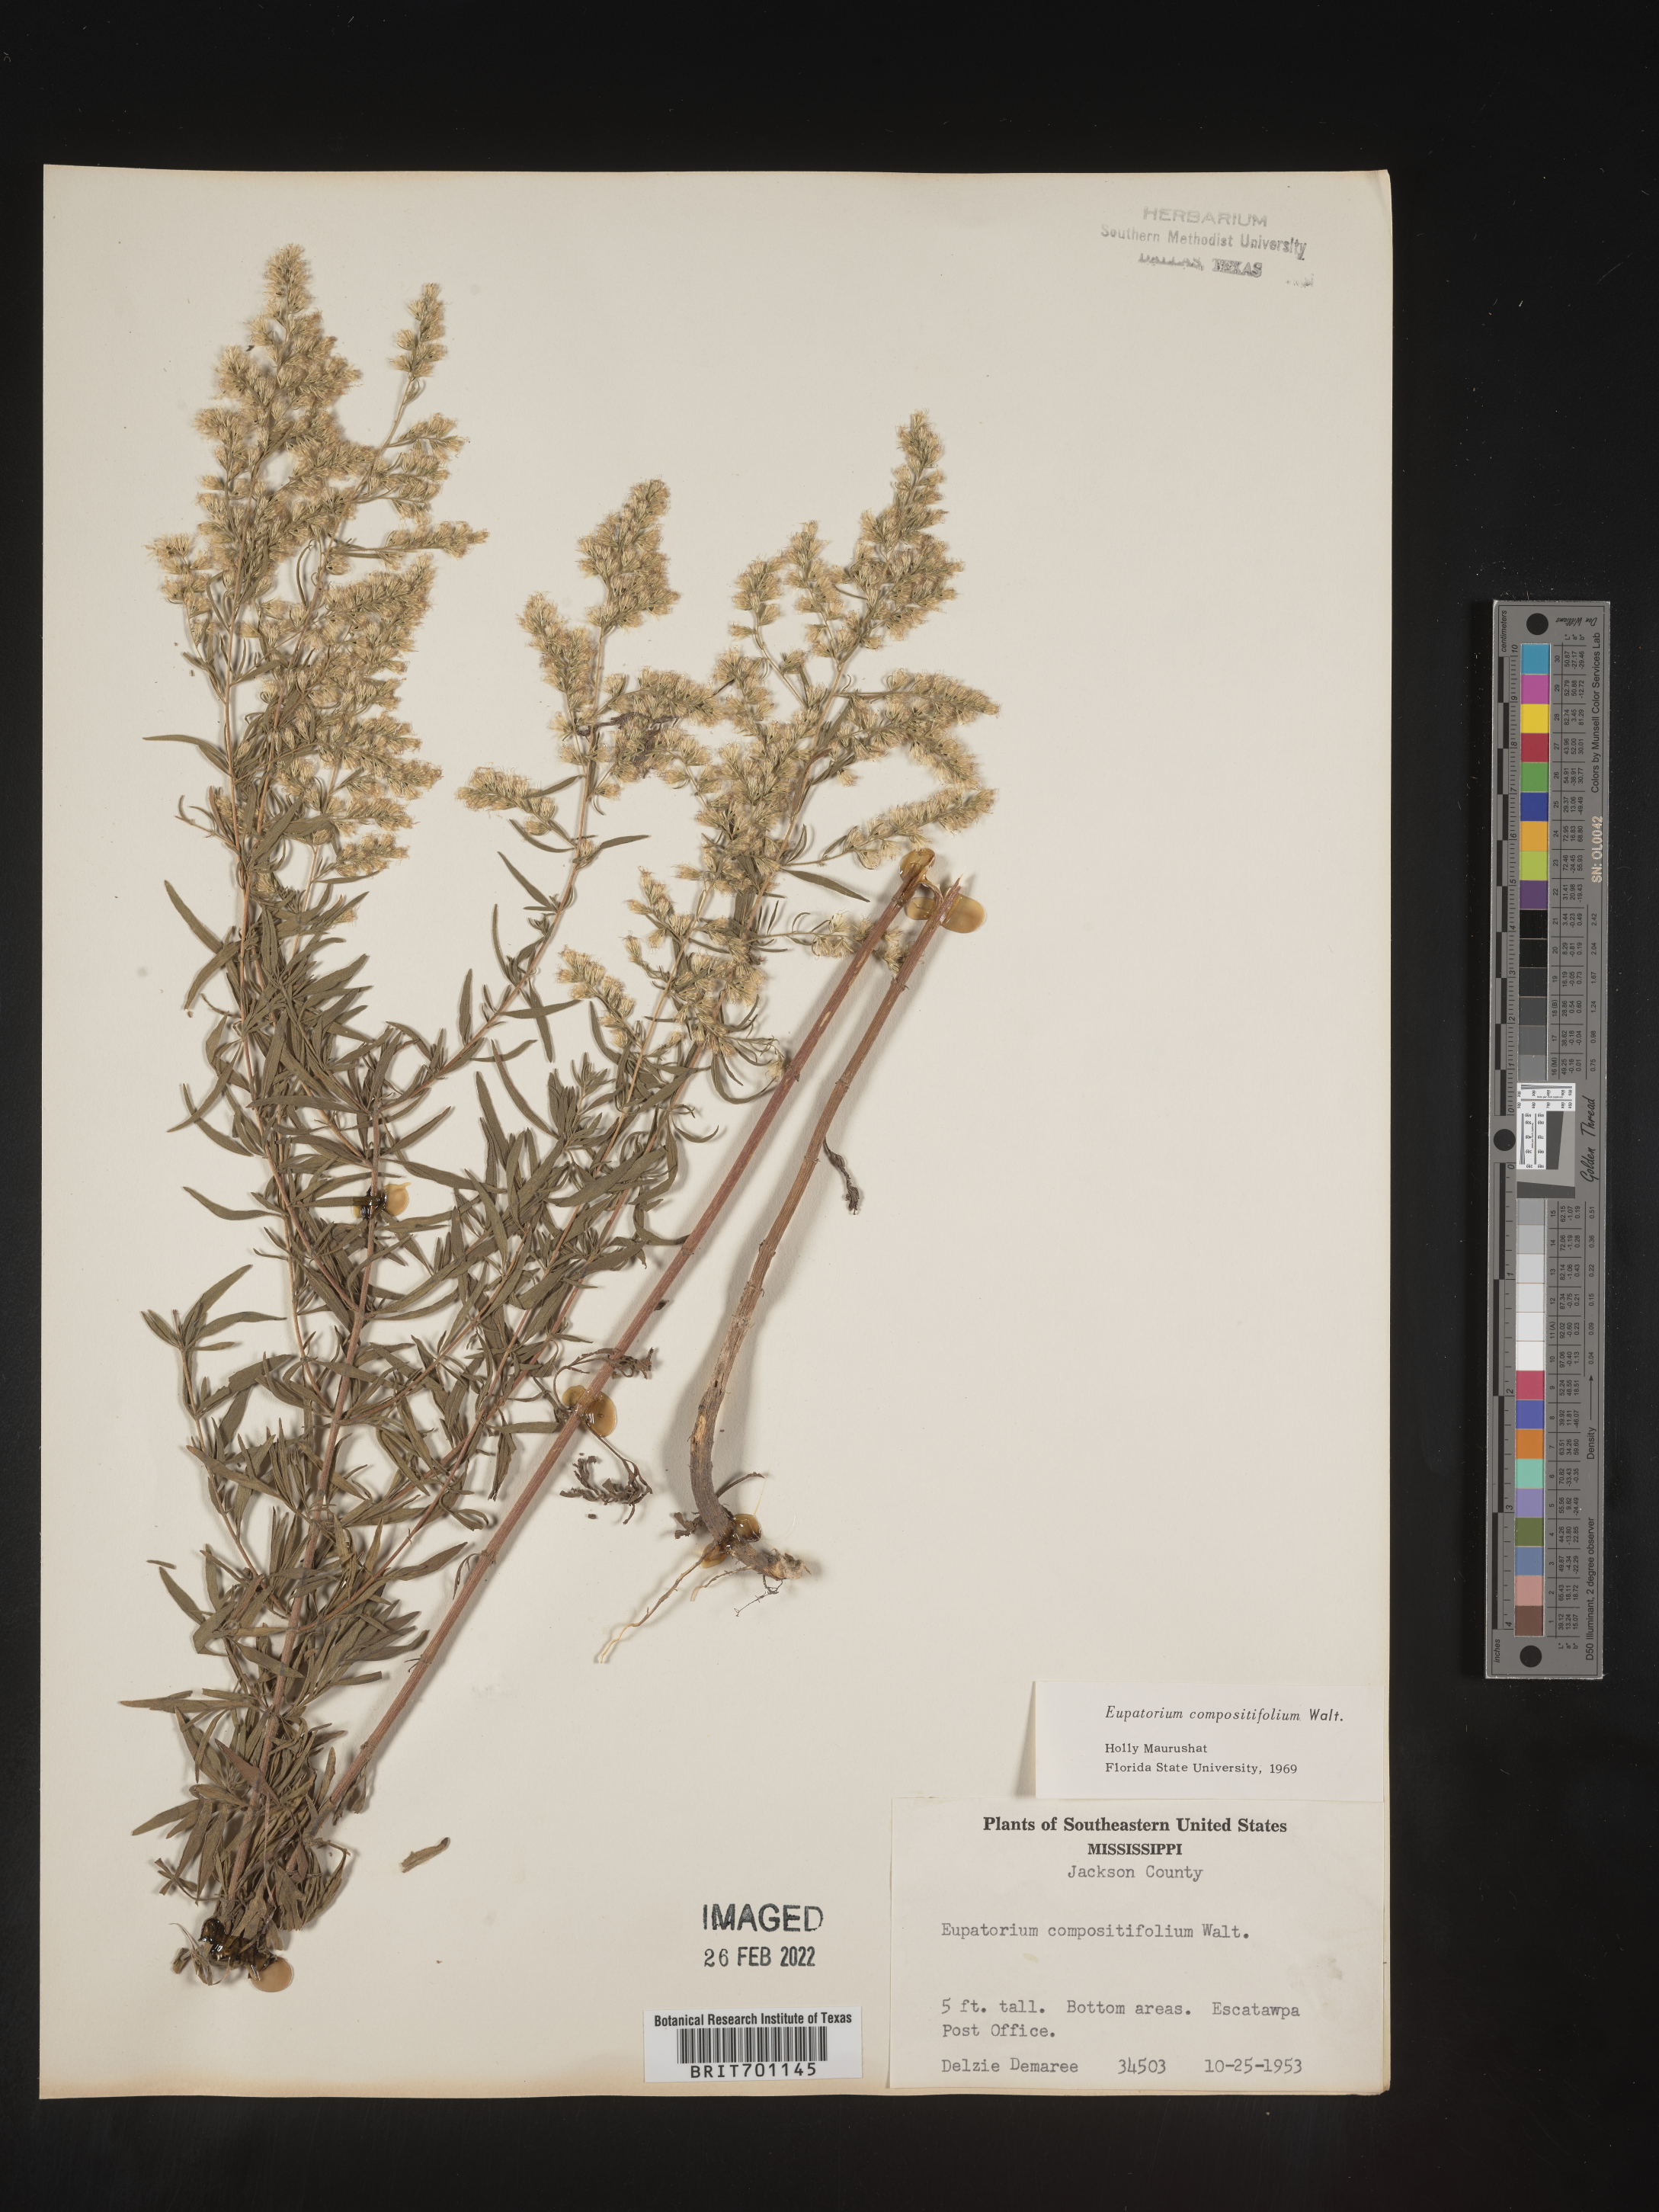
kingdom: Plantae
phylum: Tracheophyta
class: Magnoliopsida
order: Asterales
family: Asteraceae
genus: Eupatorium
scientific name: Eupatorium compositifolium
